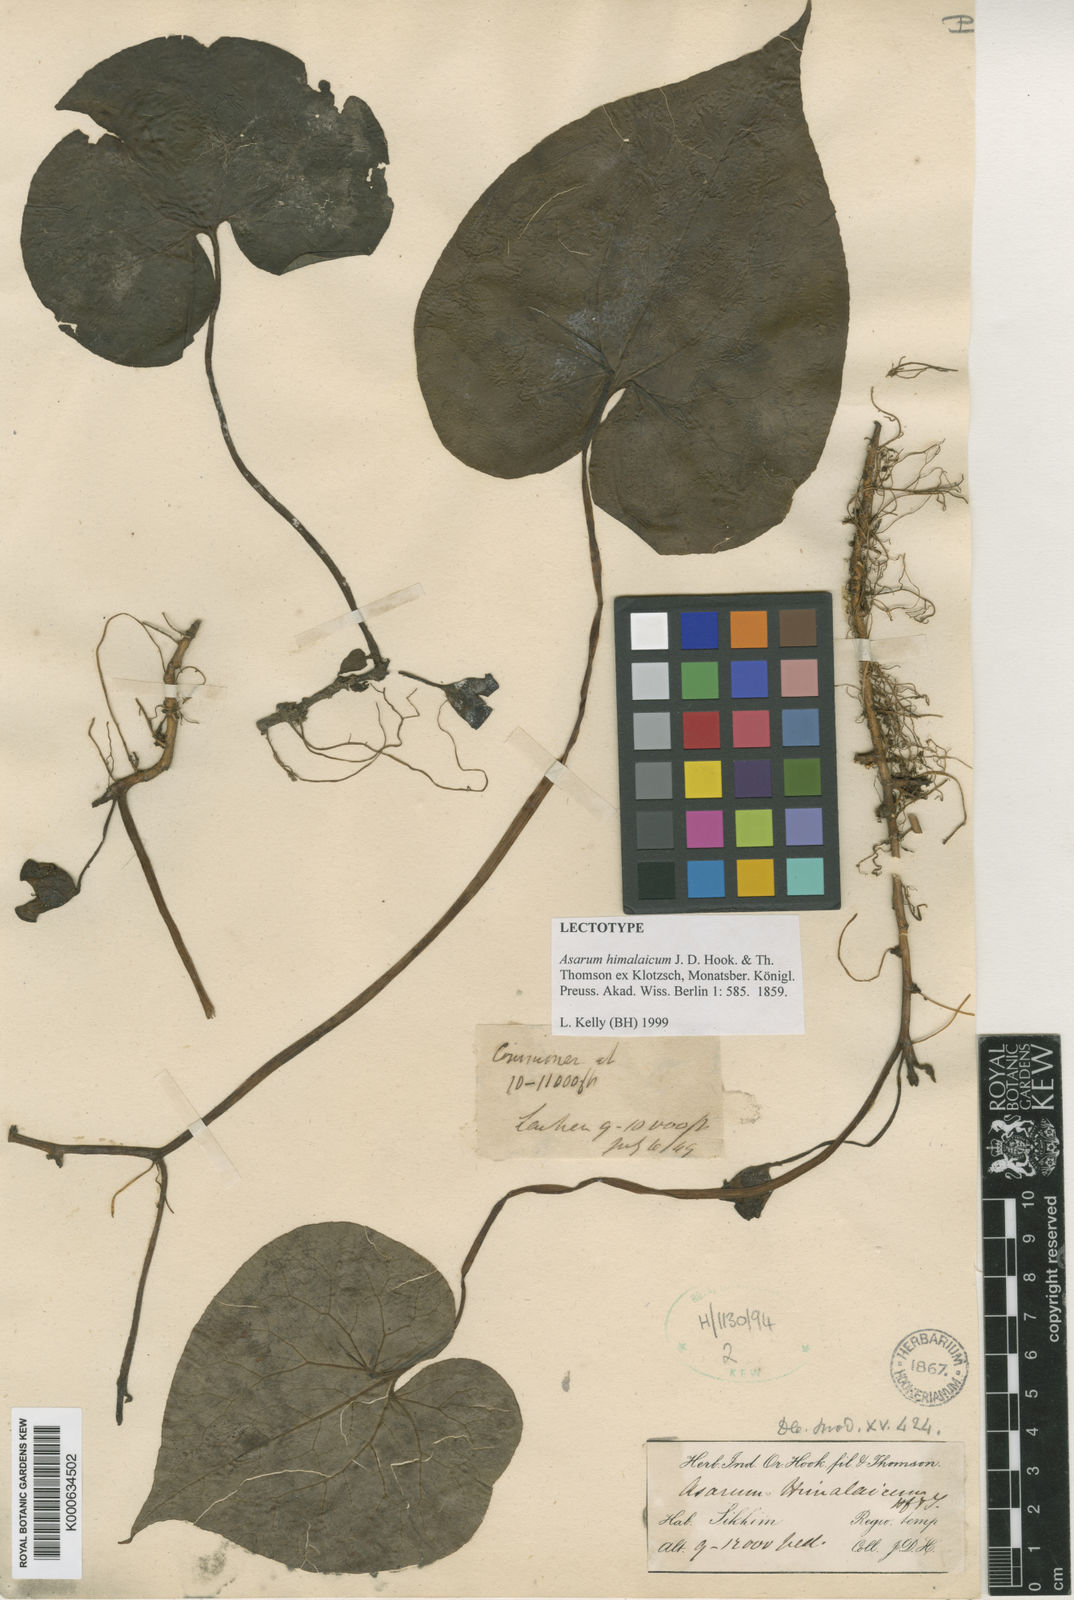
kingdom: Plantae
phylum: Tracheophyta
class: Magnoliopsida
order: Piperales
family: Aristolochiaceae
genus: Asarum
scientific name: Asarum himalaicum
